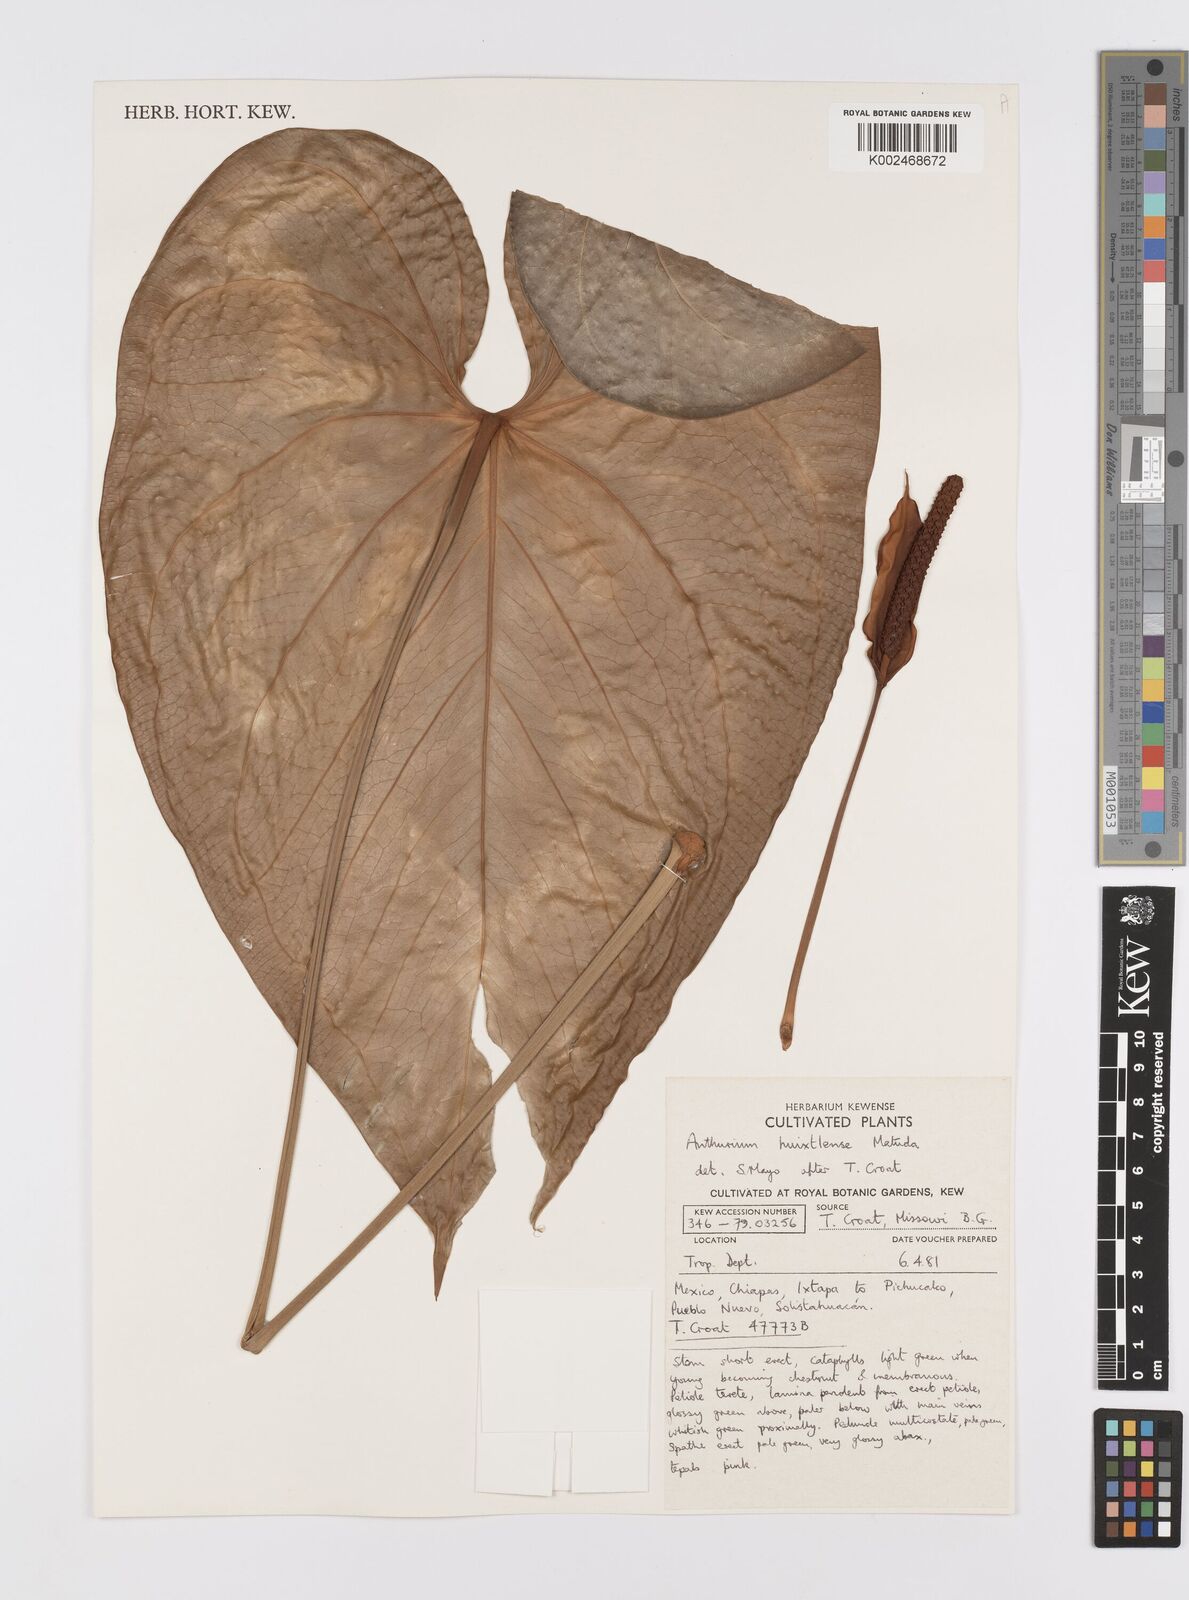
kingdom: Plantae
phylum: Tracheophyta
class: Liliopsida
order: Alismatales
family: Araceae
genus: Anthurium
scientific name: Anthurium huixtlense
